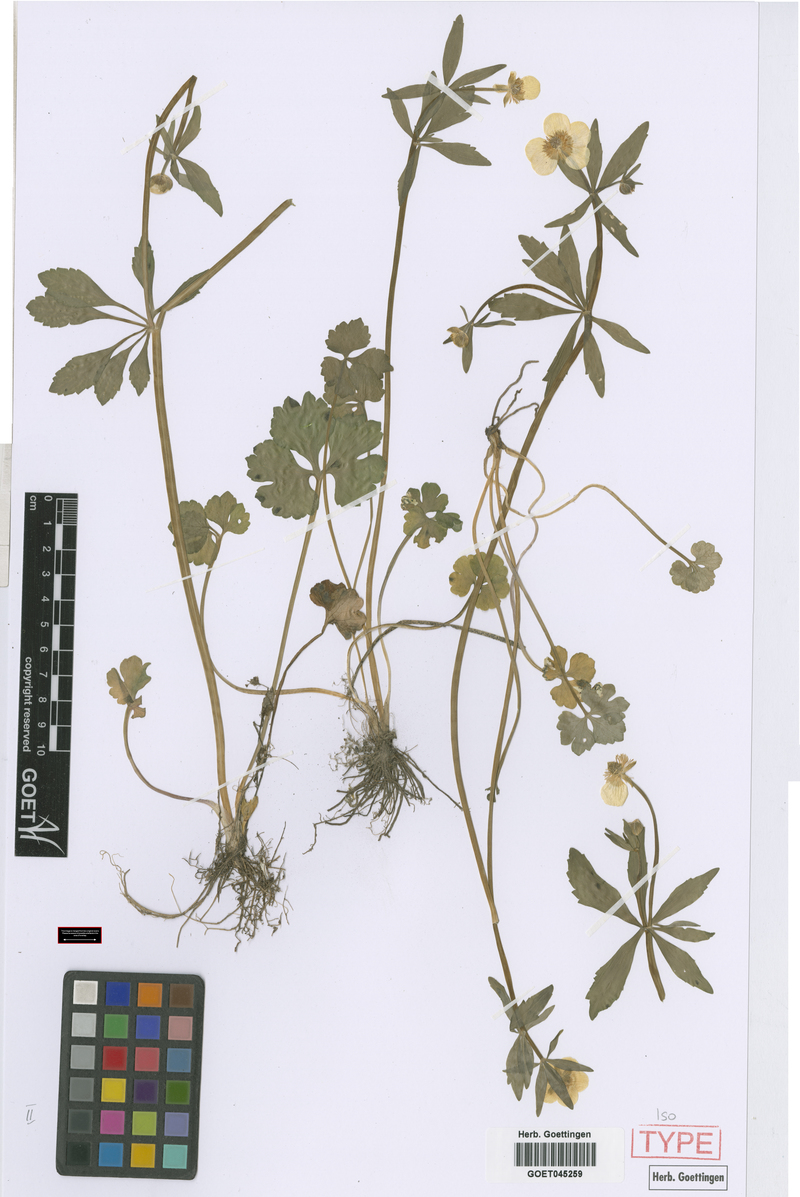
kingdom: Plantae
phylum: Tracheophyta
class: Magnoliopsida
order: Ranunculales
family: Ranunculaceae
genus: Ranunculus
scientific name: Ranunculus subglechomoides
